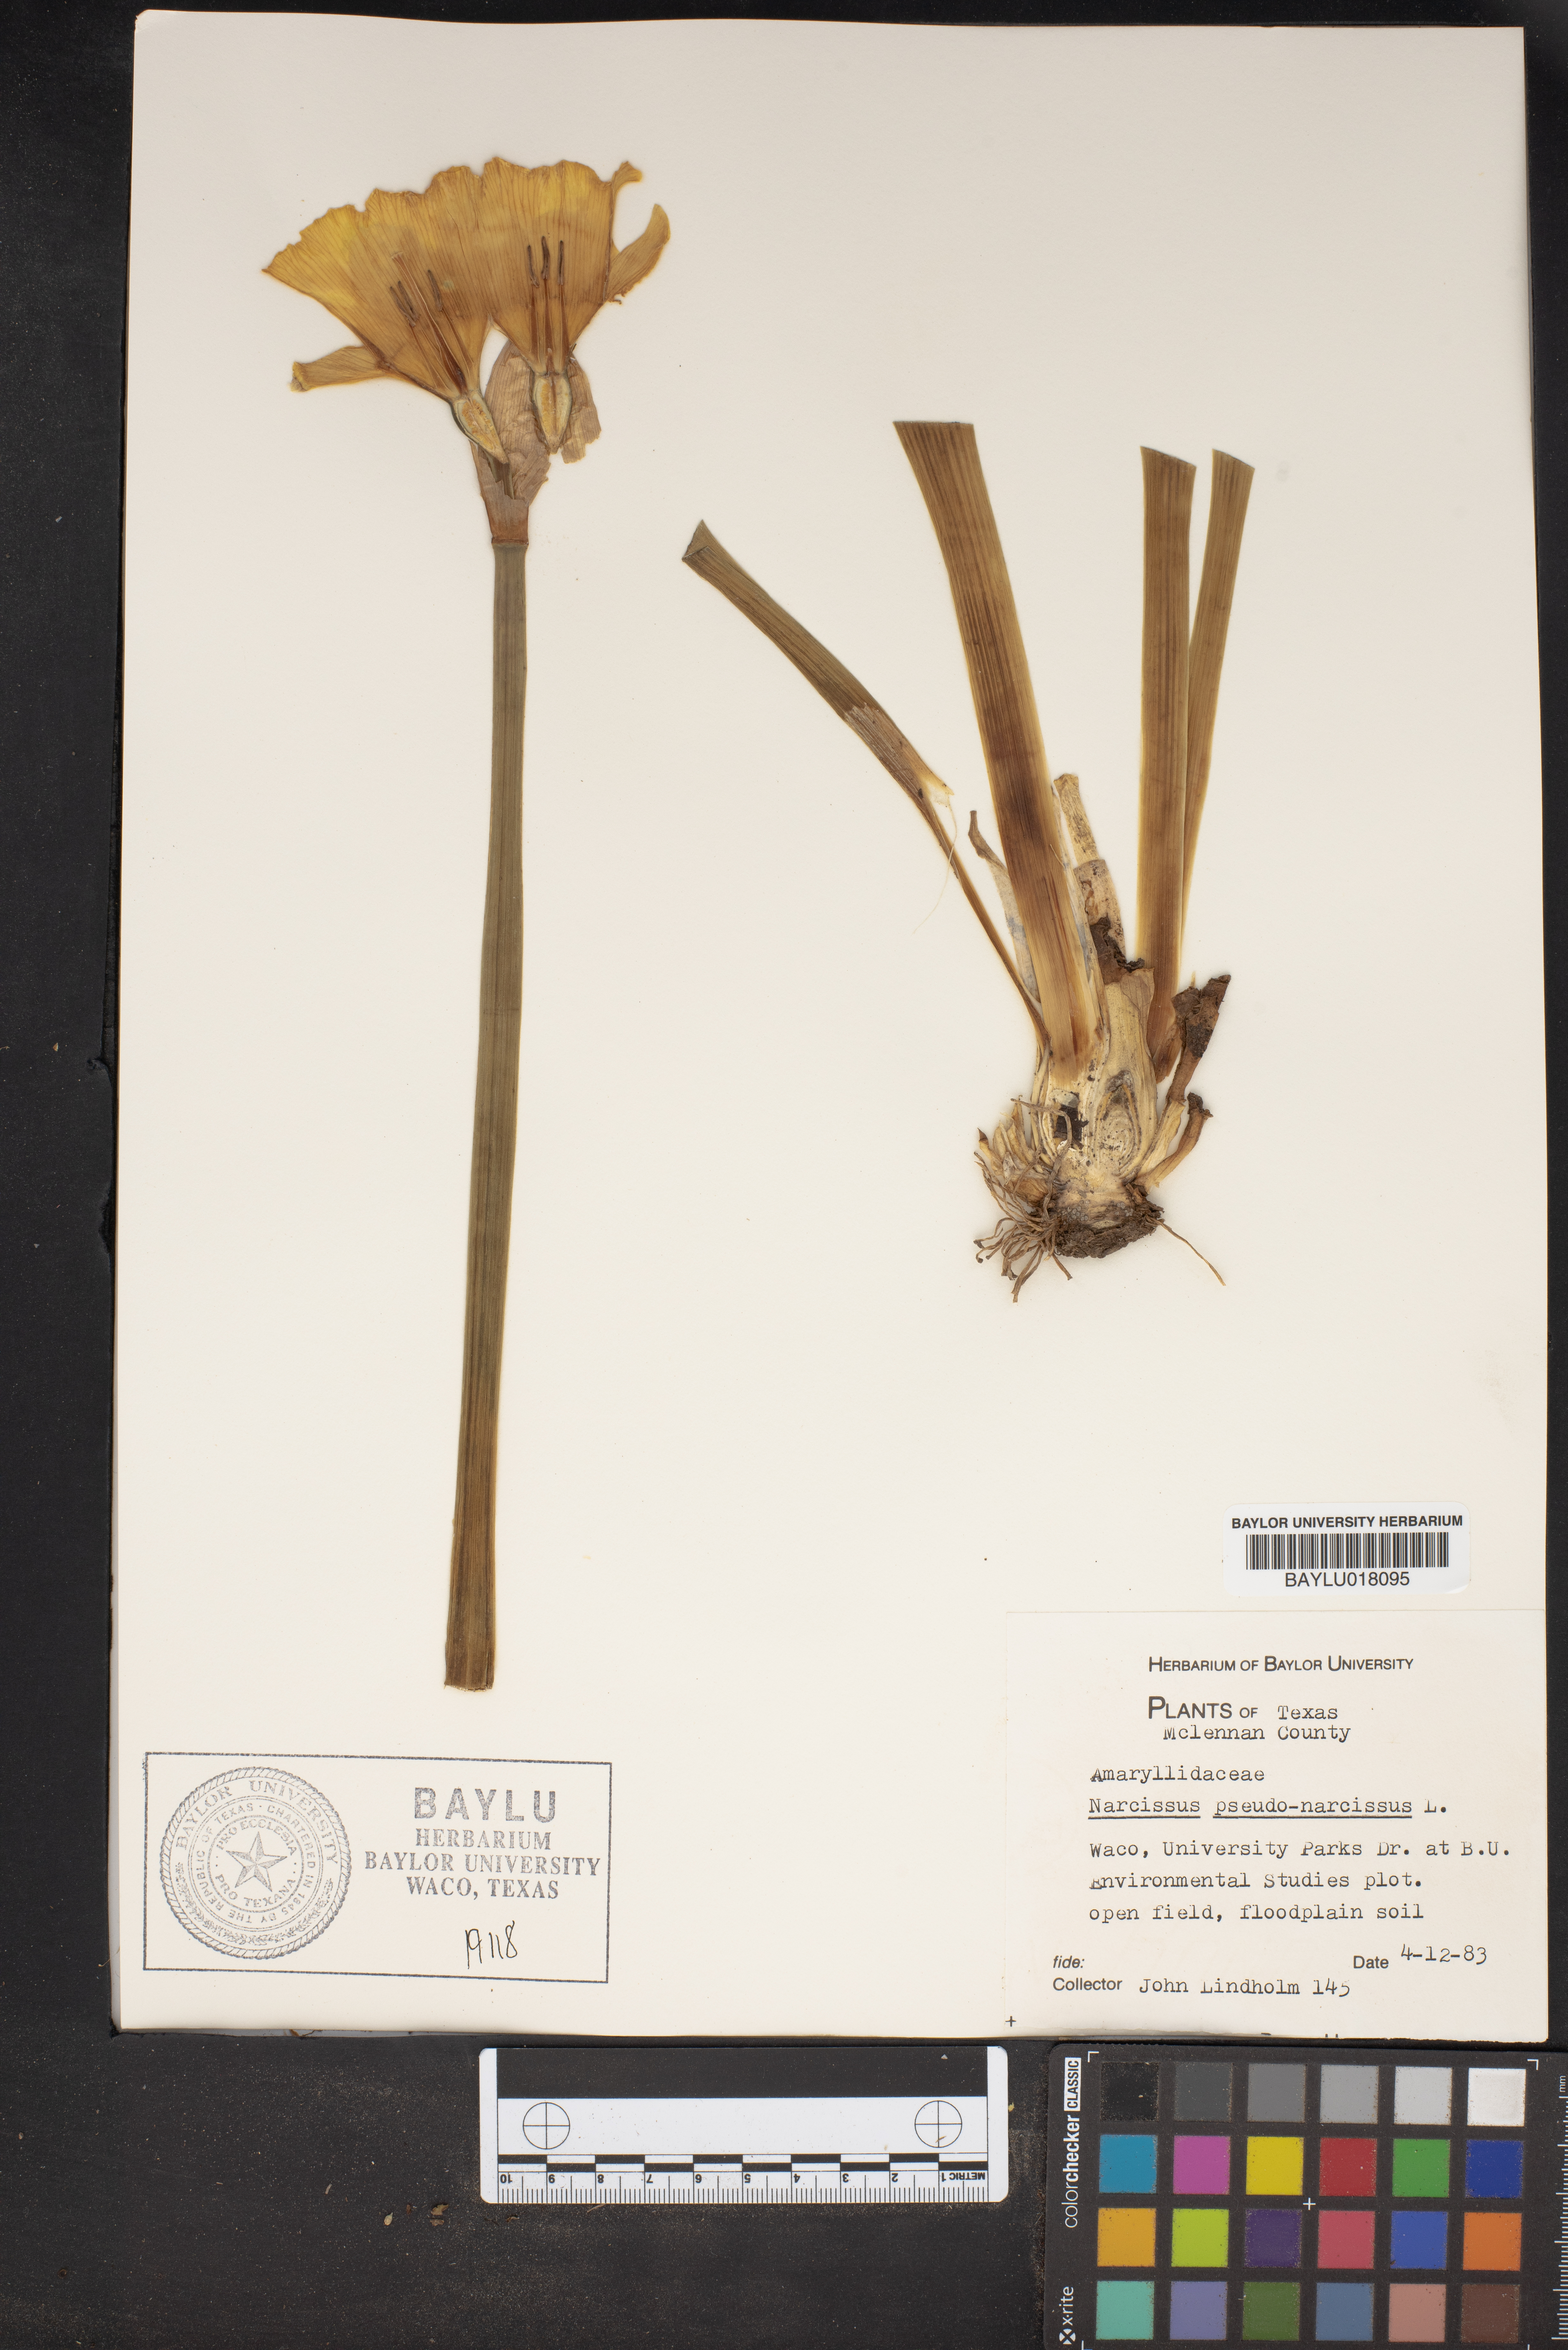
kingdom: Plantae
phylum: Tracheophyta
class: Liliopsida
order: Asparagales
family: Amaryllidaceae
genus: Narcissus
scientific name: Narcissus pseudonarcissus
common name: Daffodil
